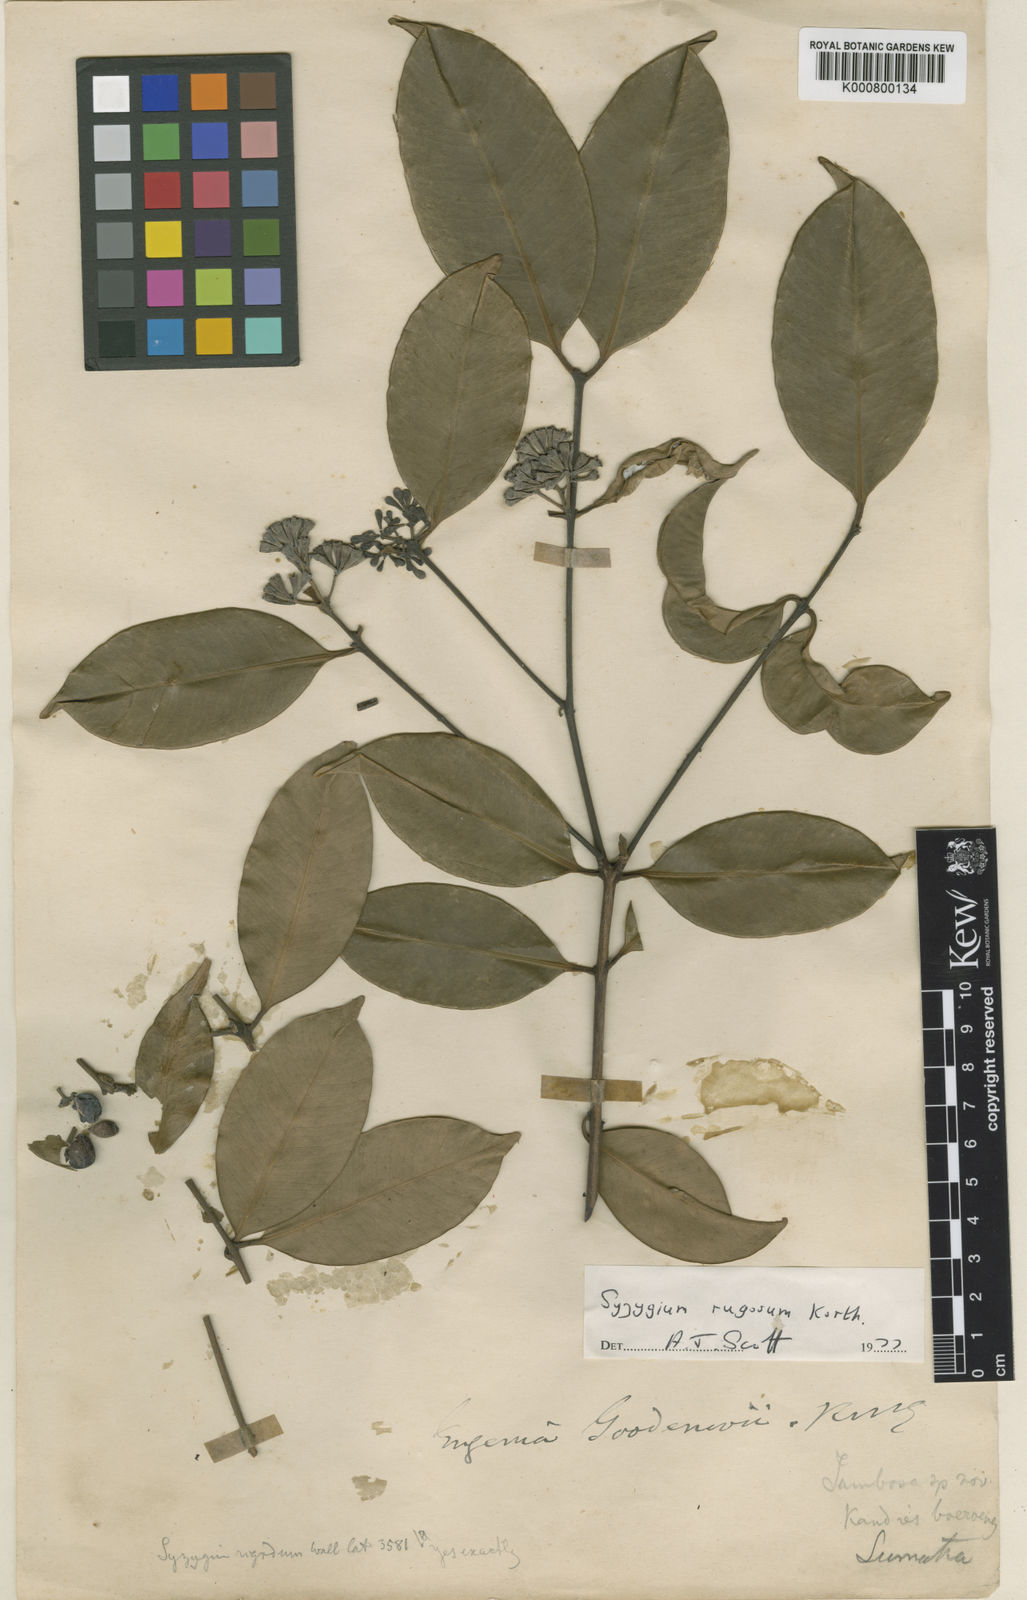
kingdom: Plantae
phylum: Tracheophyta
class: Magnoliopsida
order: Myrtales
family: Myrtaceae
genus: Syzygium
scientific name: Syzygium goodenovii
